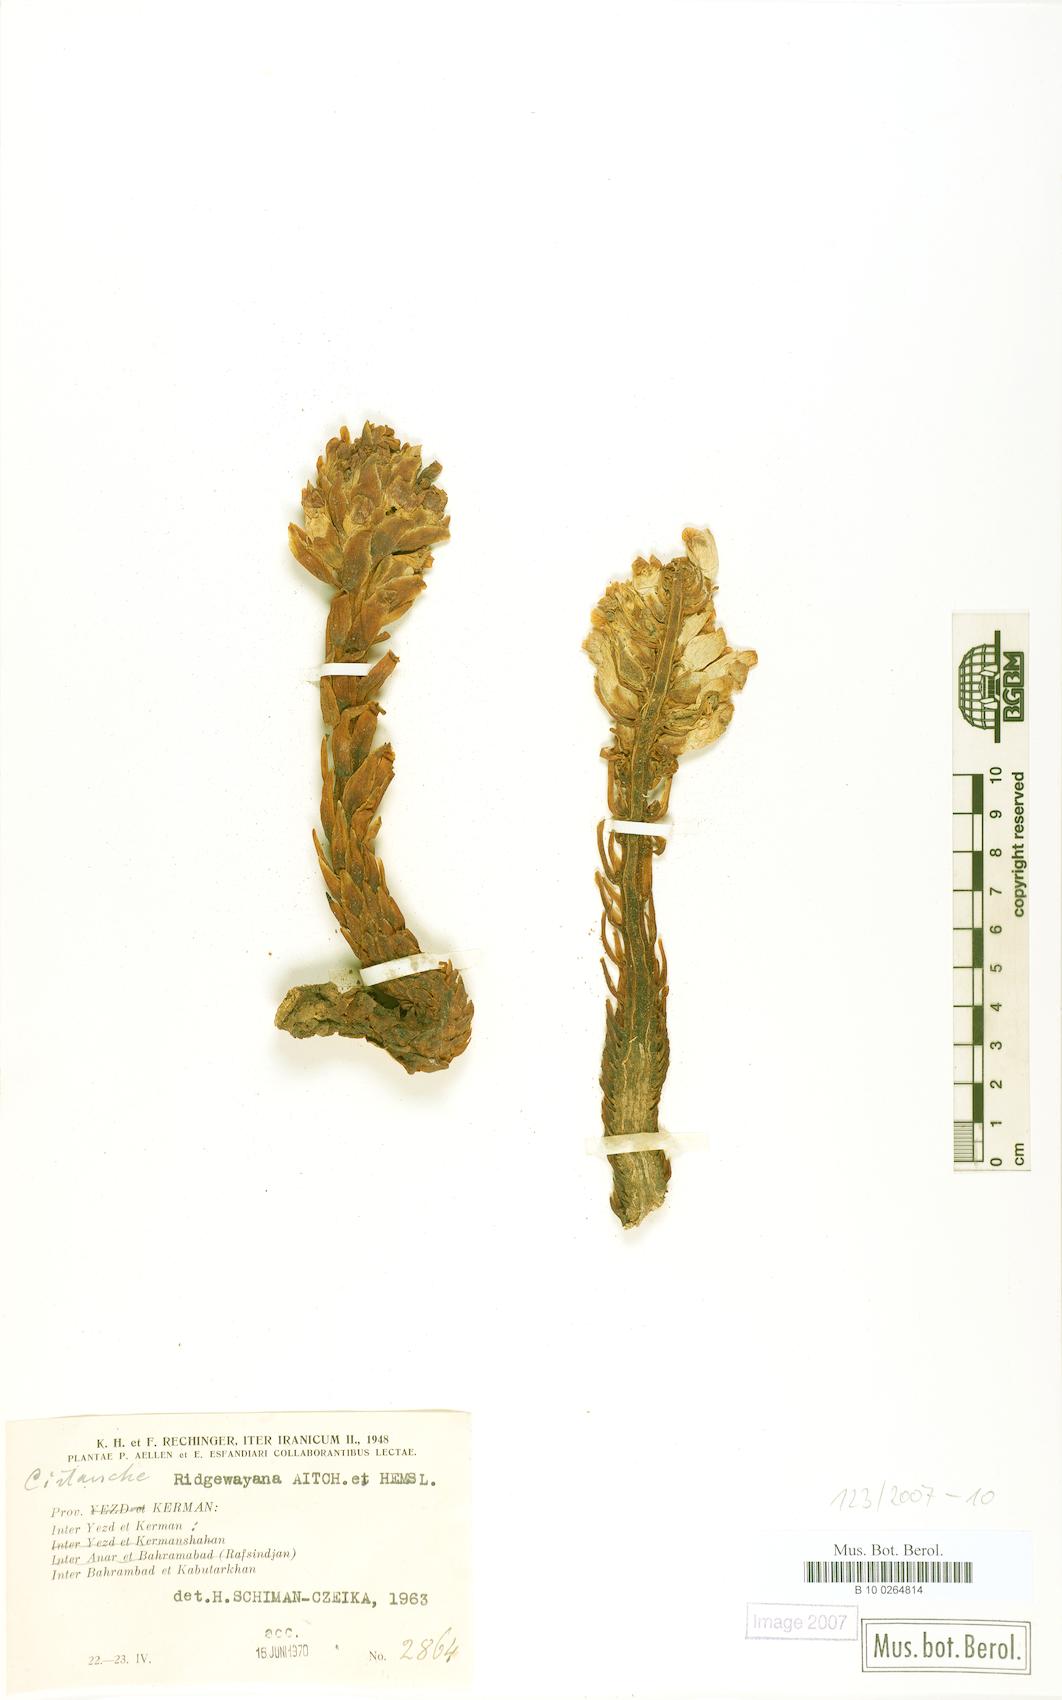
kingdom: Plantae
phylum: Tracheophyta
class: Magnoliopsida
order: Lamiales
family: Orobanchaceae
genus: Cistanche
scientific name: Cistanche persica
